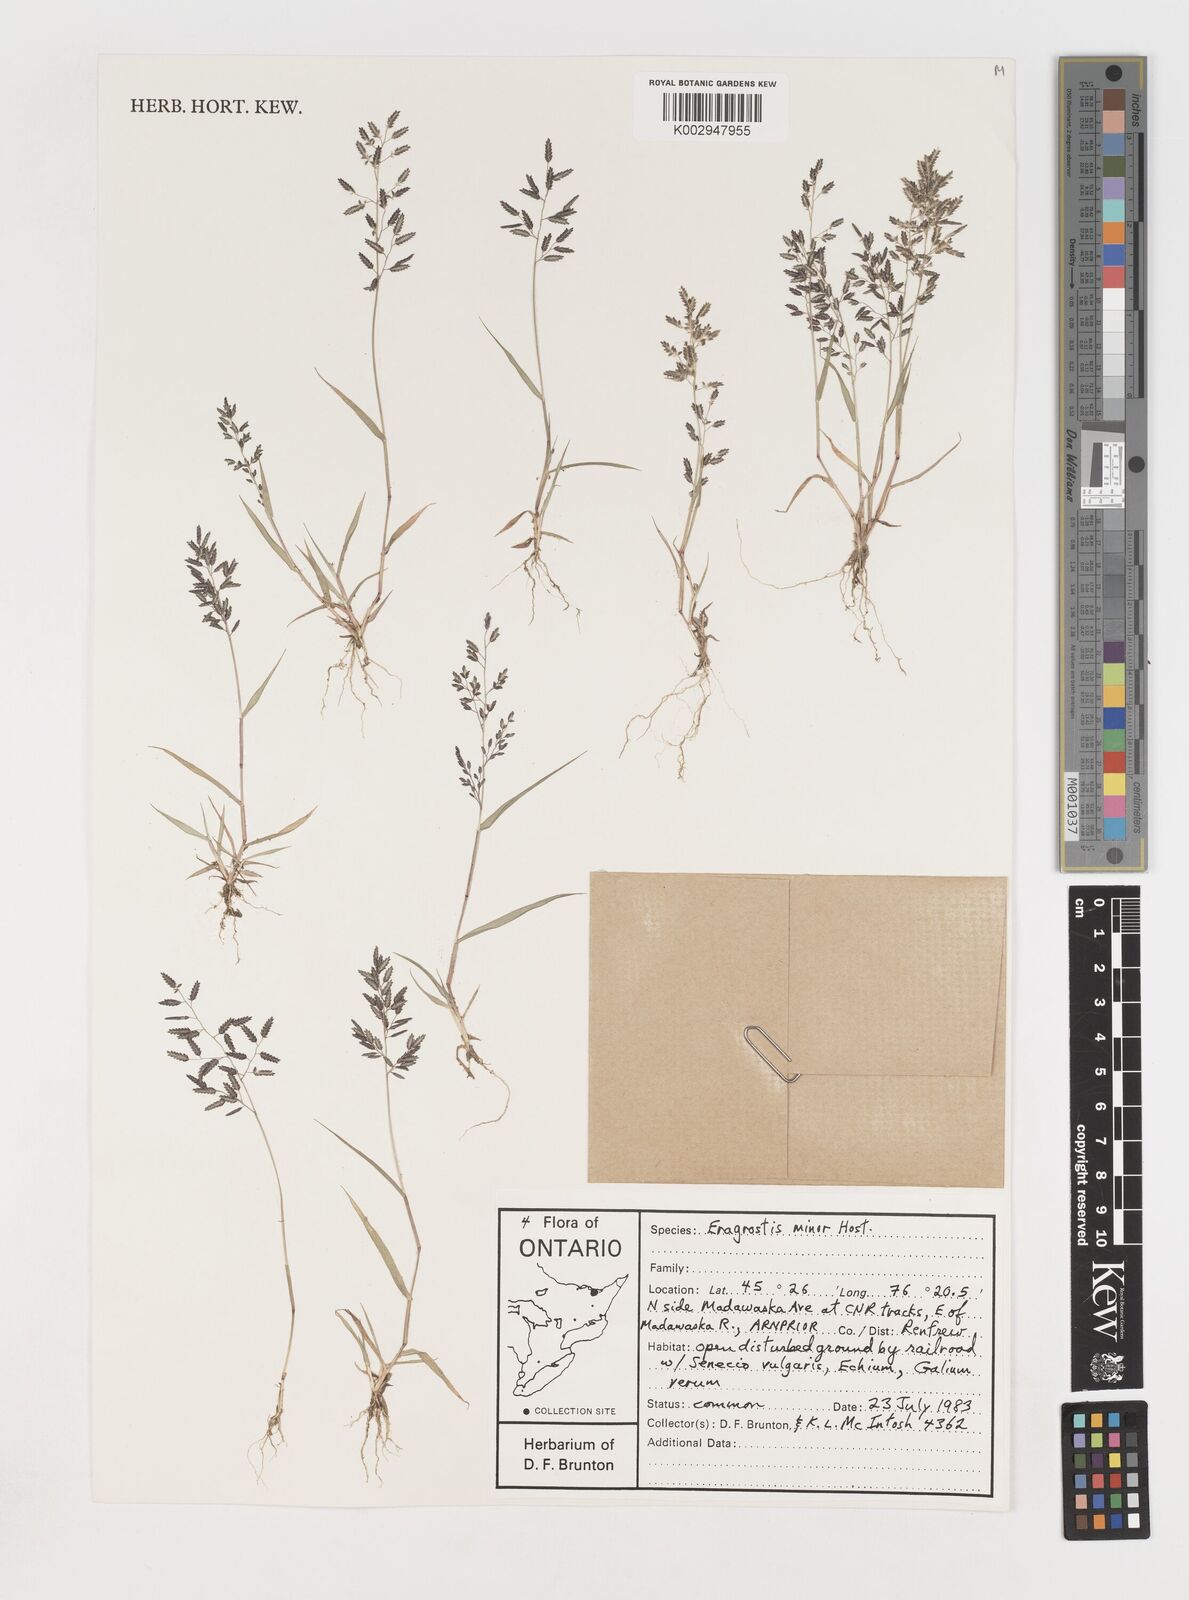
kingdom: Plantae
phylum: Tracheophyta
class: Liliopsida
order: Poales
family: Poaceae
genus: Eragrostis
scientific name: Eragrostis minor
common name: Small love-grass
